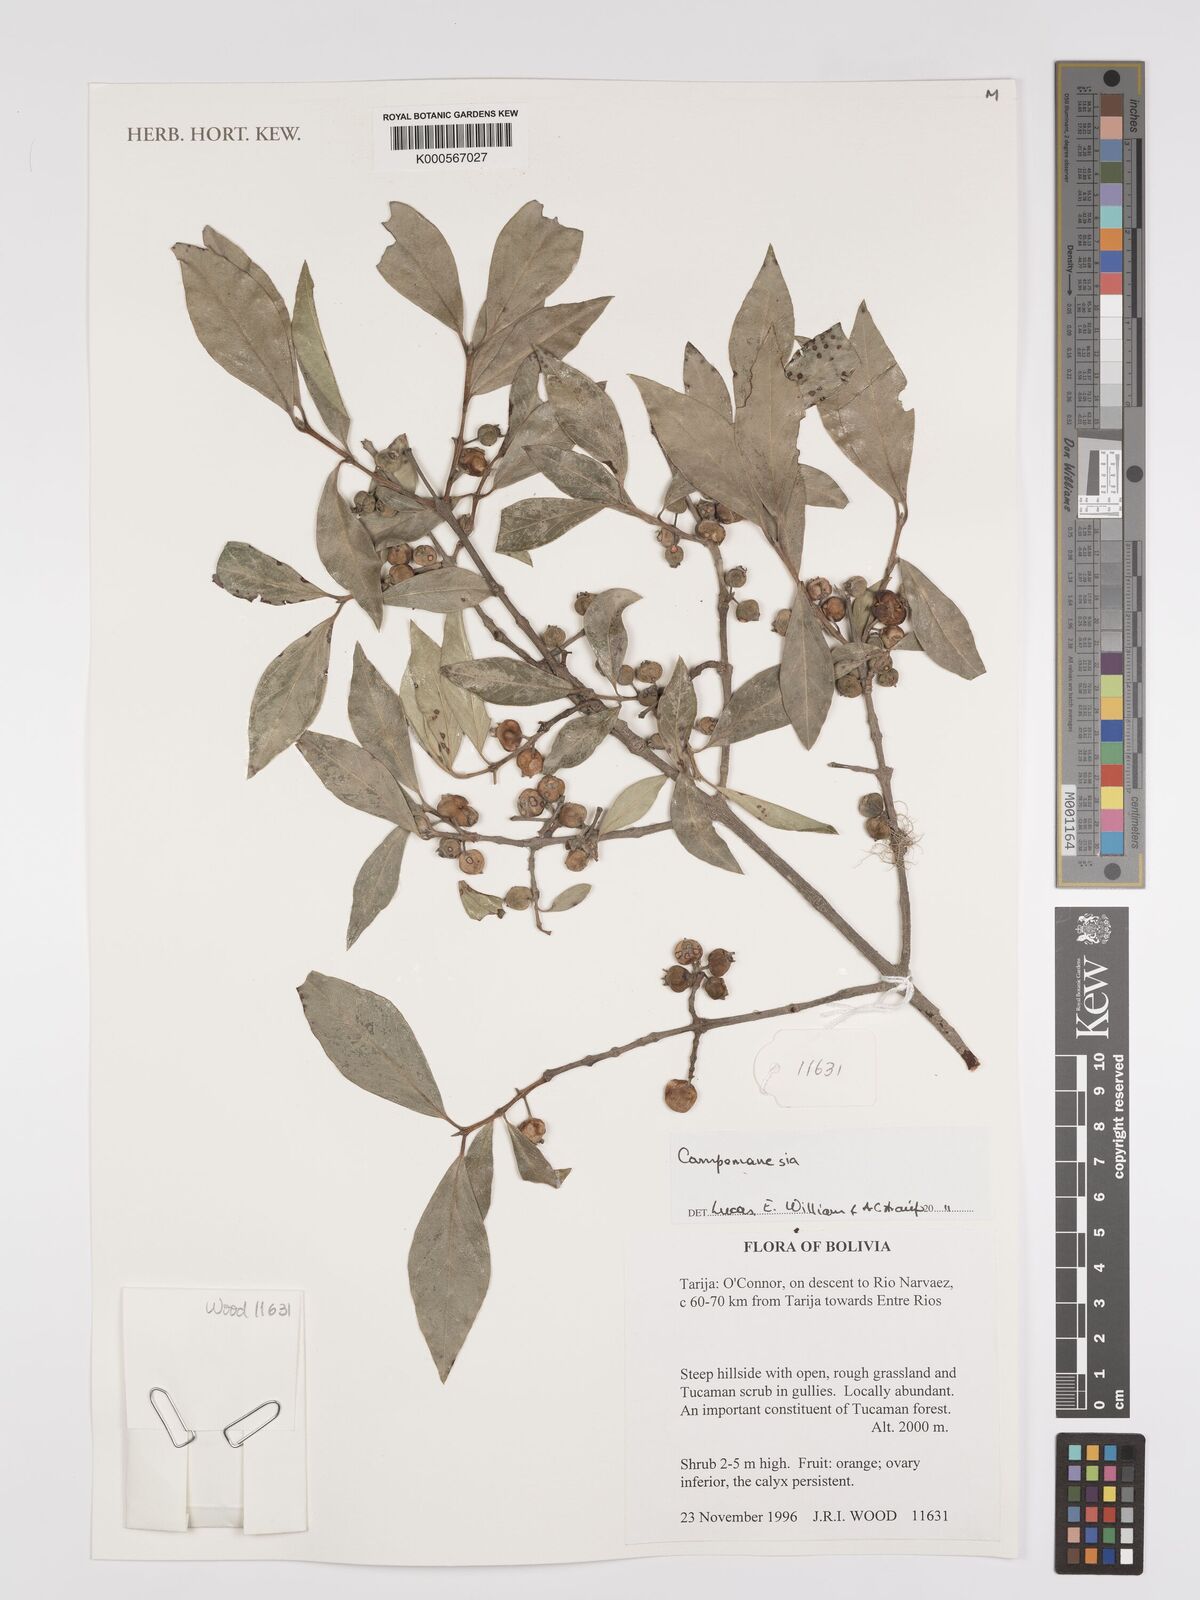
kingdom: Plantae
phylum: Tracheophyta
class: Magnoliopsida
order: Myrtales
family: Myrtaceae
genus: Campomanesia
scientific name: Campomanesia
